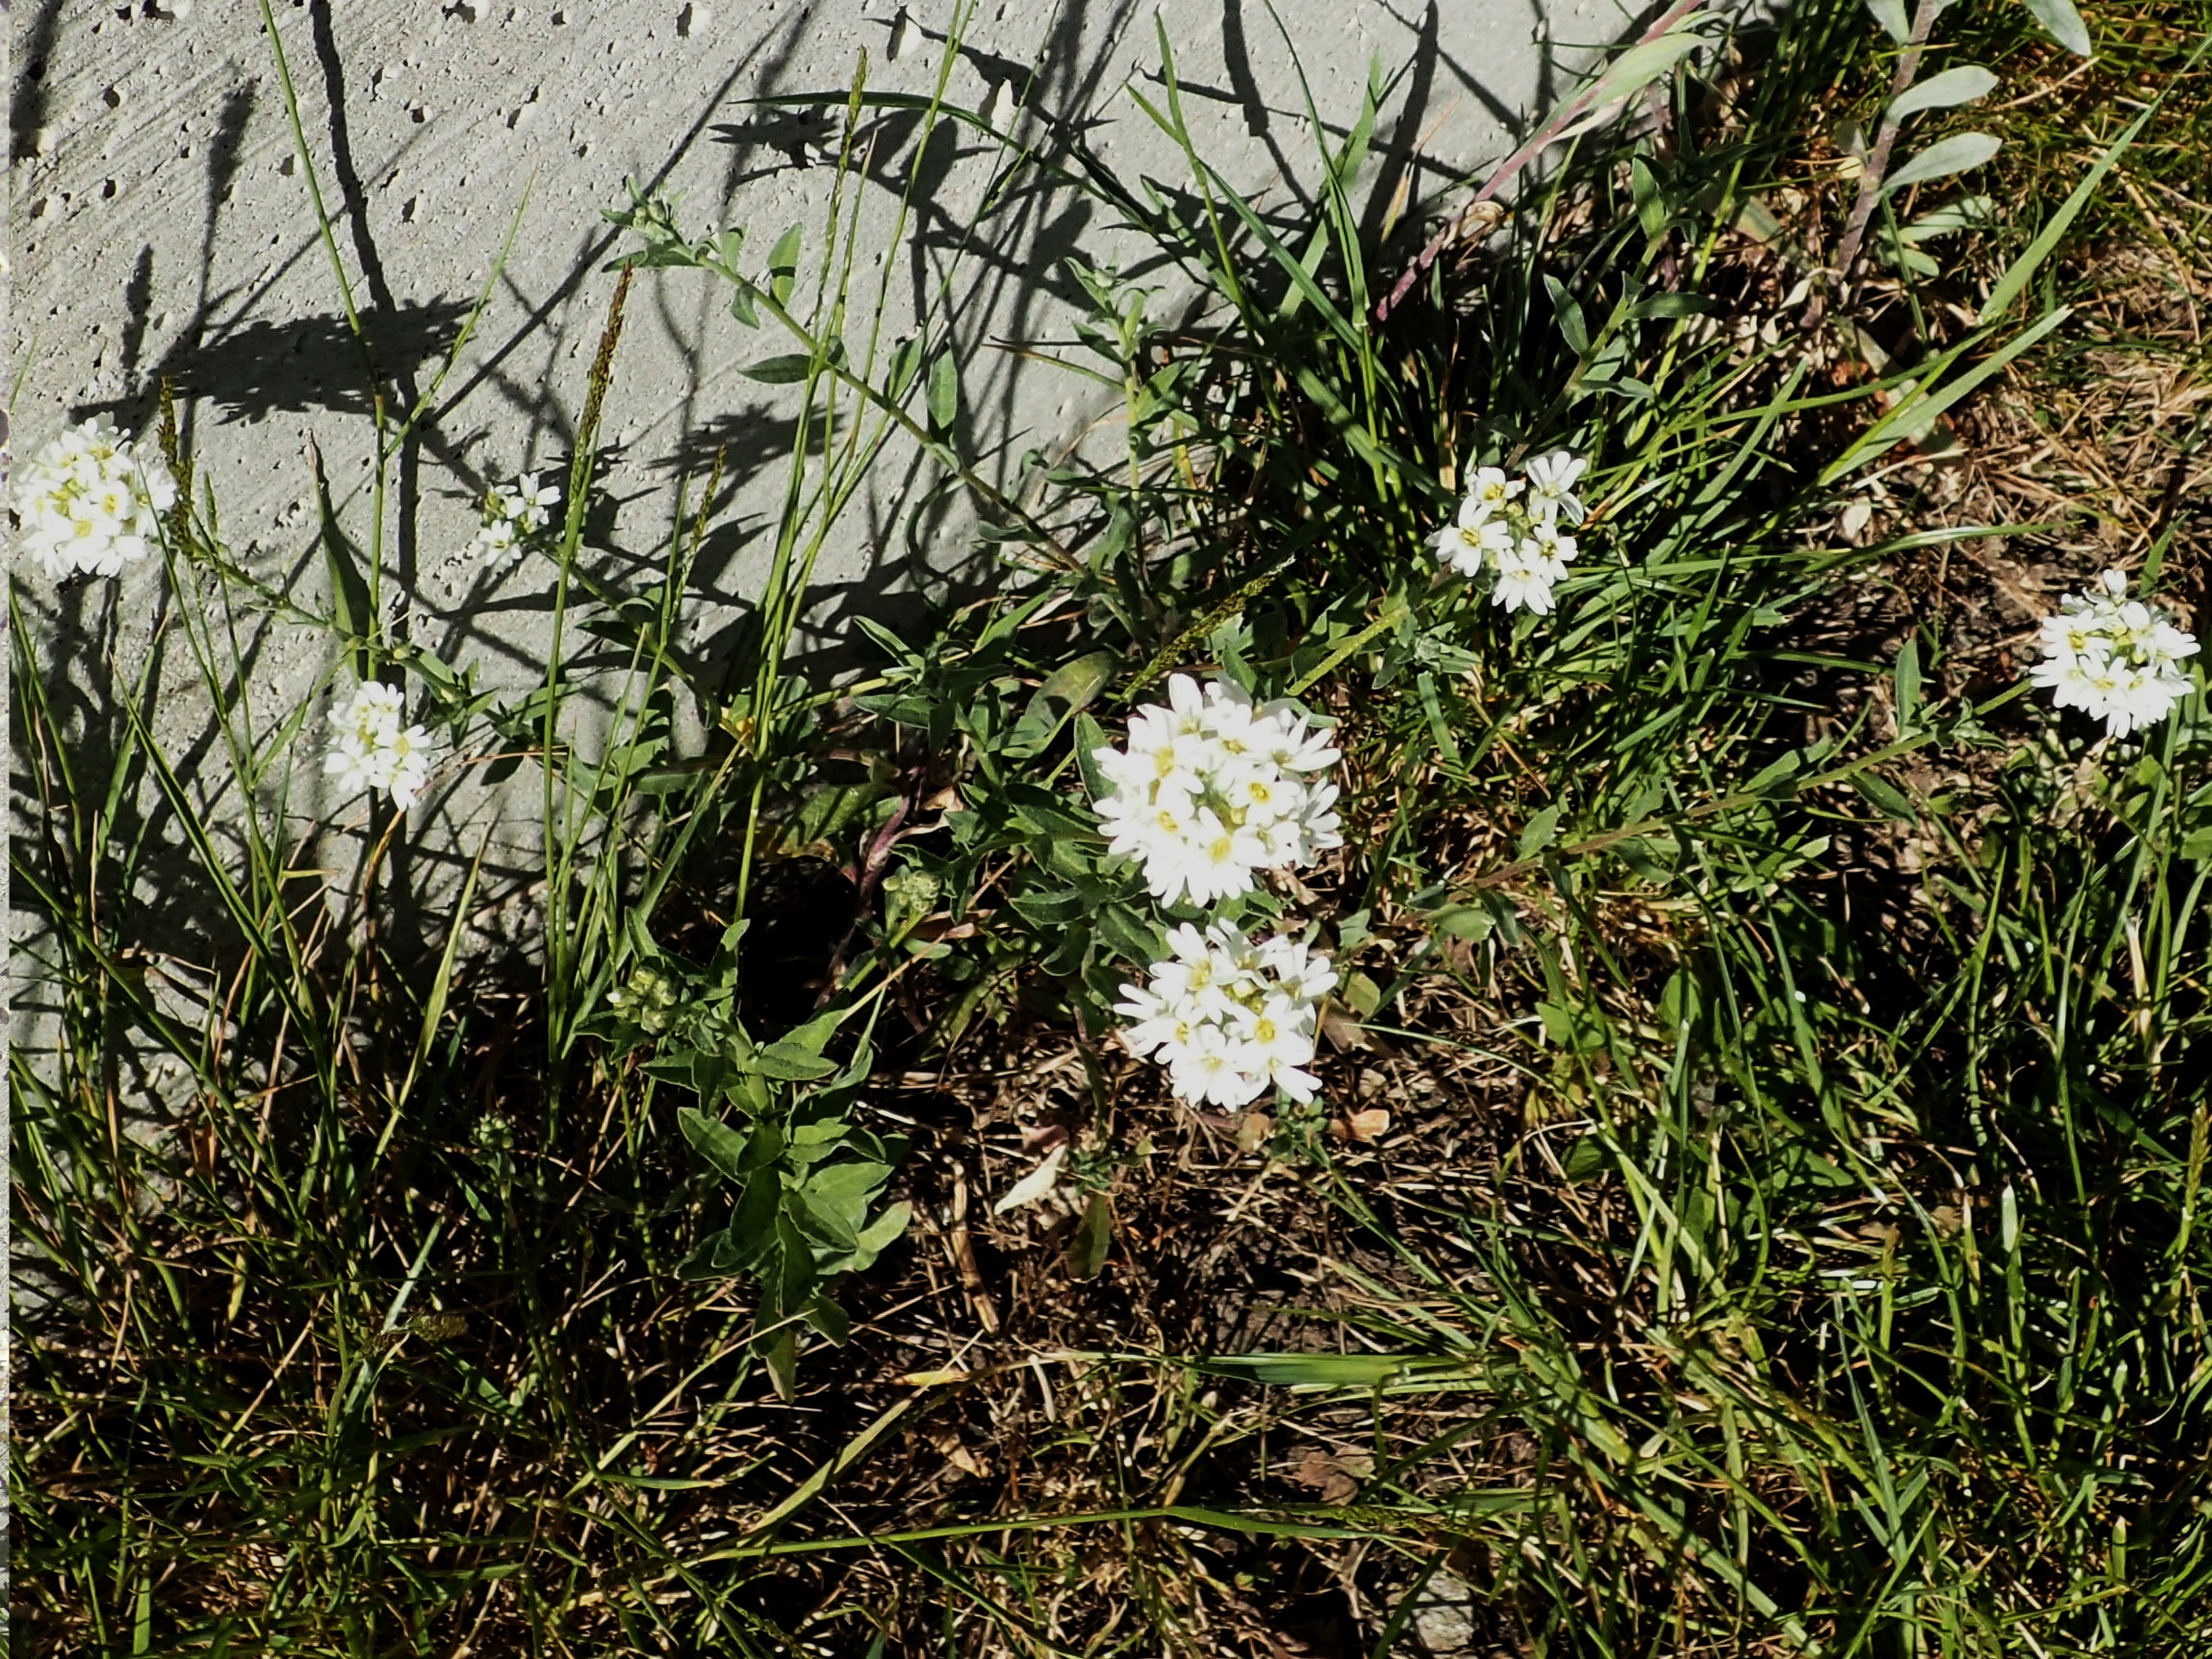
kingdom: Plantae
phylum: Tracheophyta
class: Magnoliopsida
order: Brassicales
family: Brassicaceae
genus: Berteroa
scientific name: Berteroa incana
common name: Kløvplade
